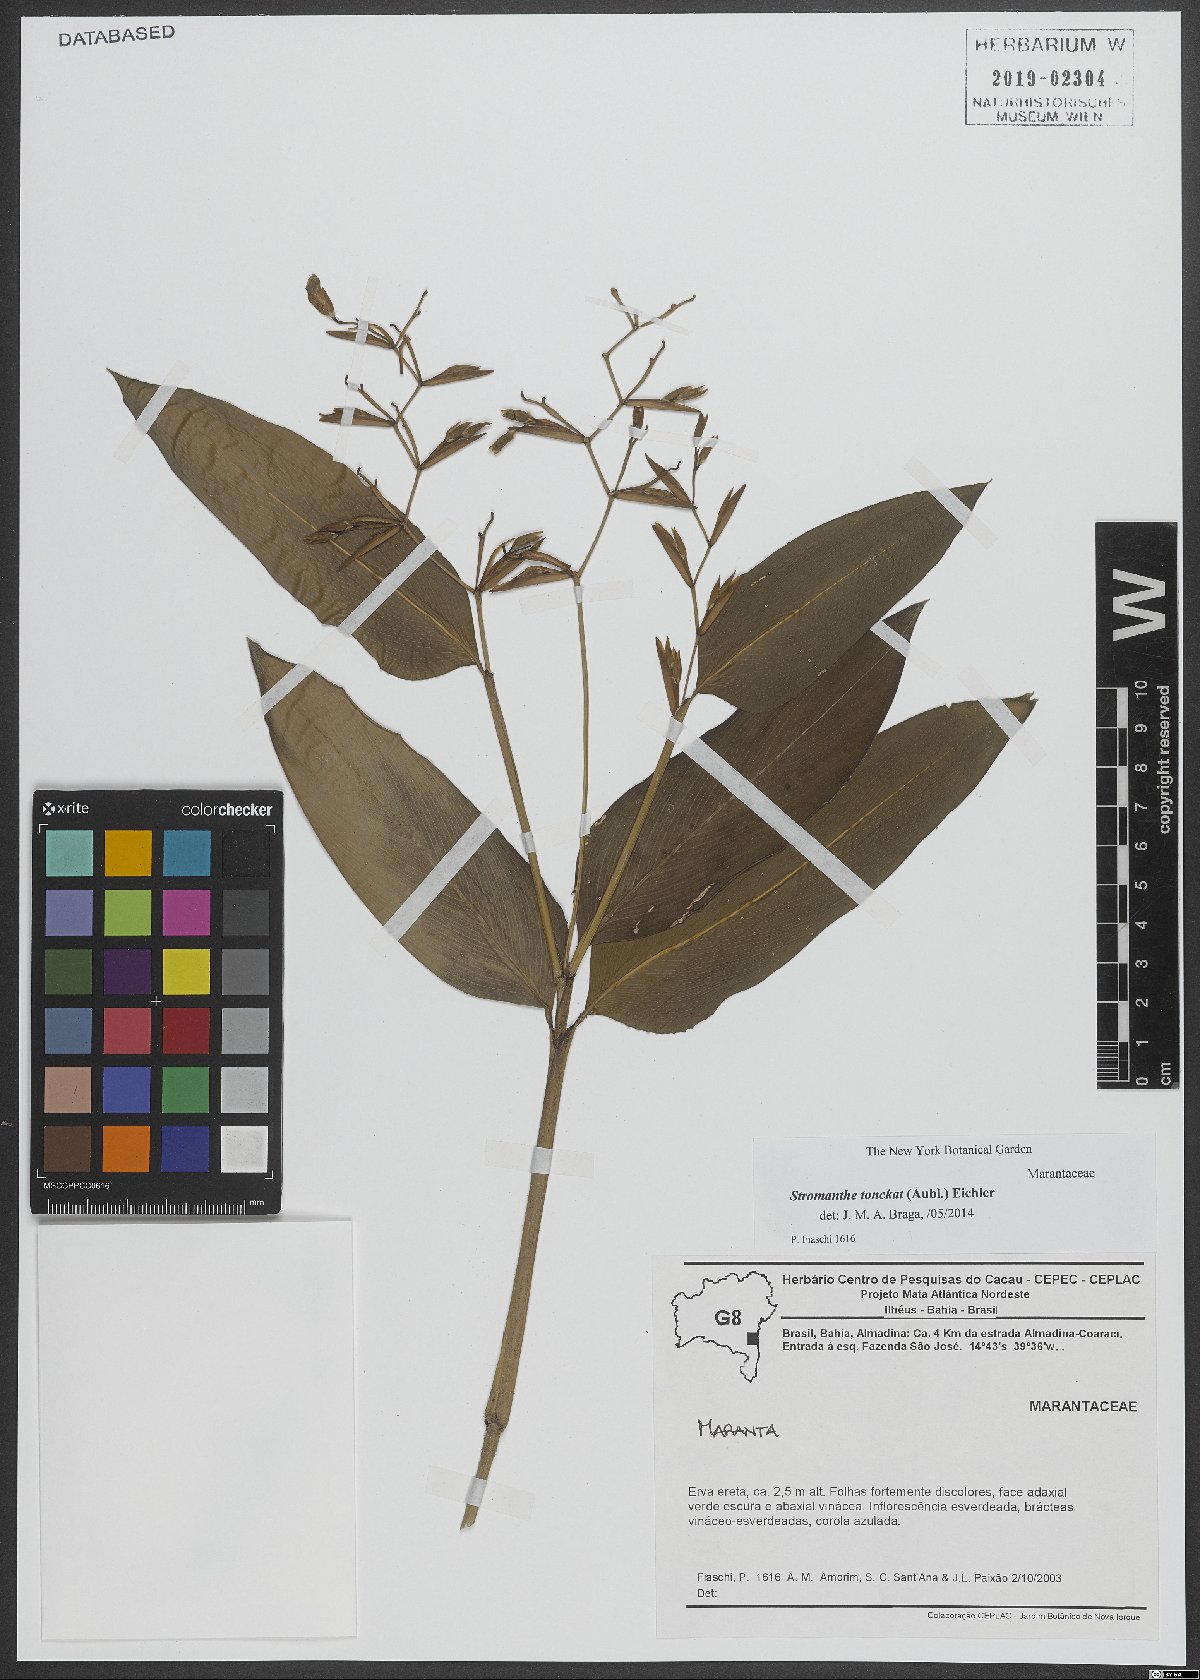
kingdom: Plantae
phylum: Tracheophyta
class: Liliopsida
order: Zingiberales
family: Marantaceae
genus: Stromanthe
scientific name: Stromanthe tonckat
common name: Stromanthe
